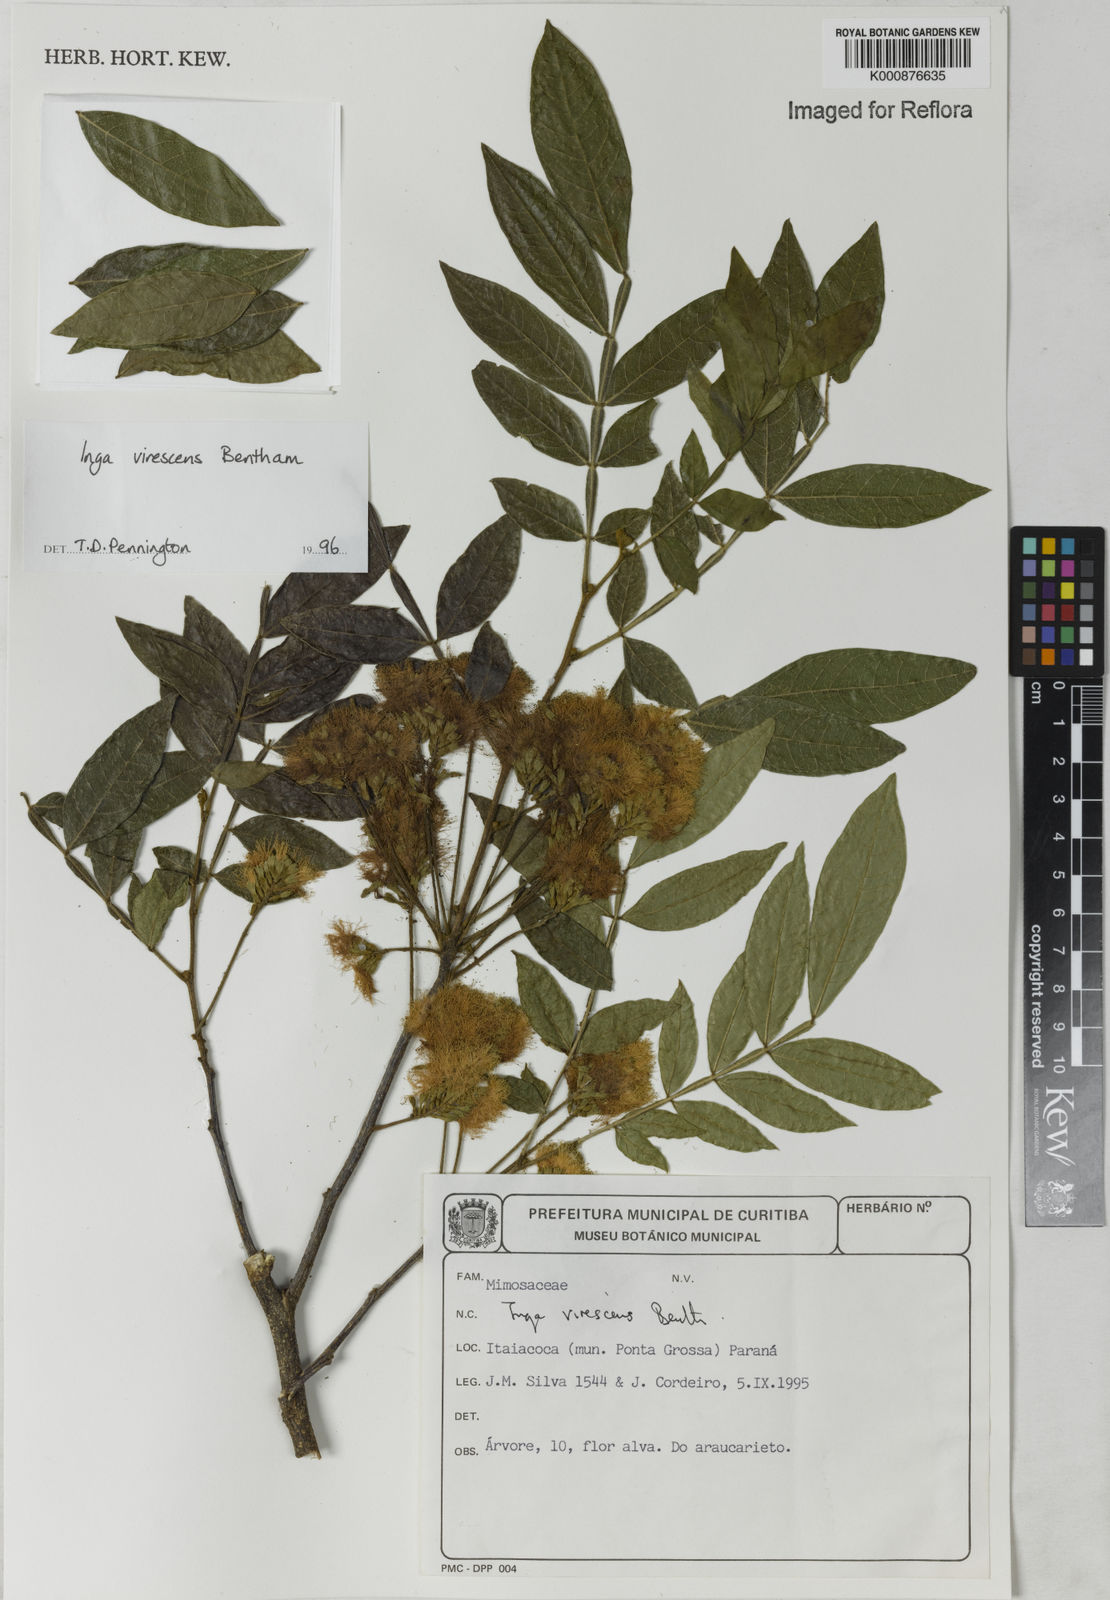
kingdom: Plantae
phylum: Tracheophyta
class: Magnoliopsida
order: Fabales
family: Fabaceae
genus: Inga
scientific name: Inga virescens
